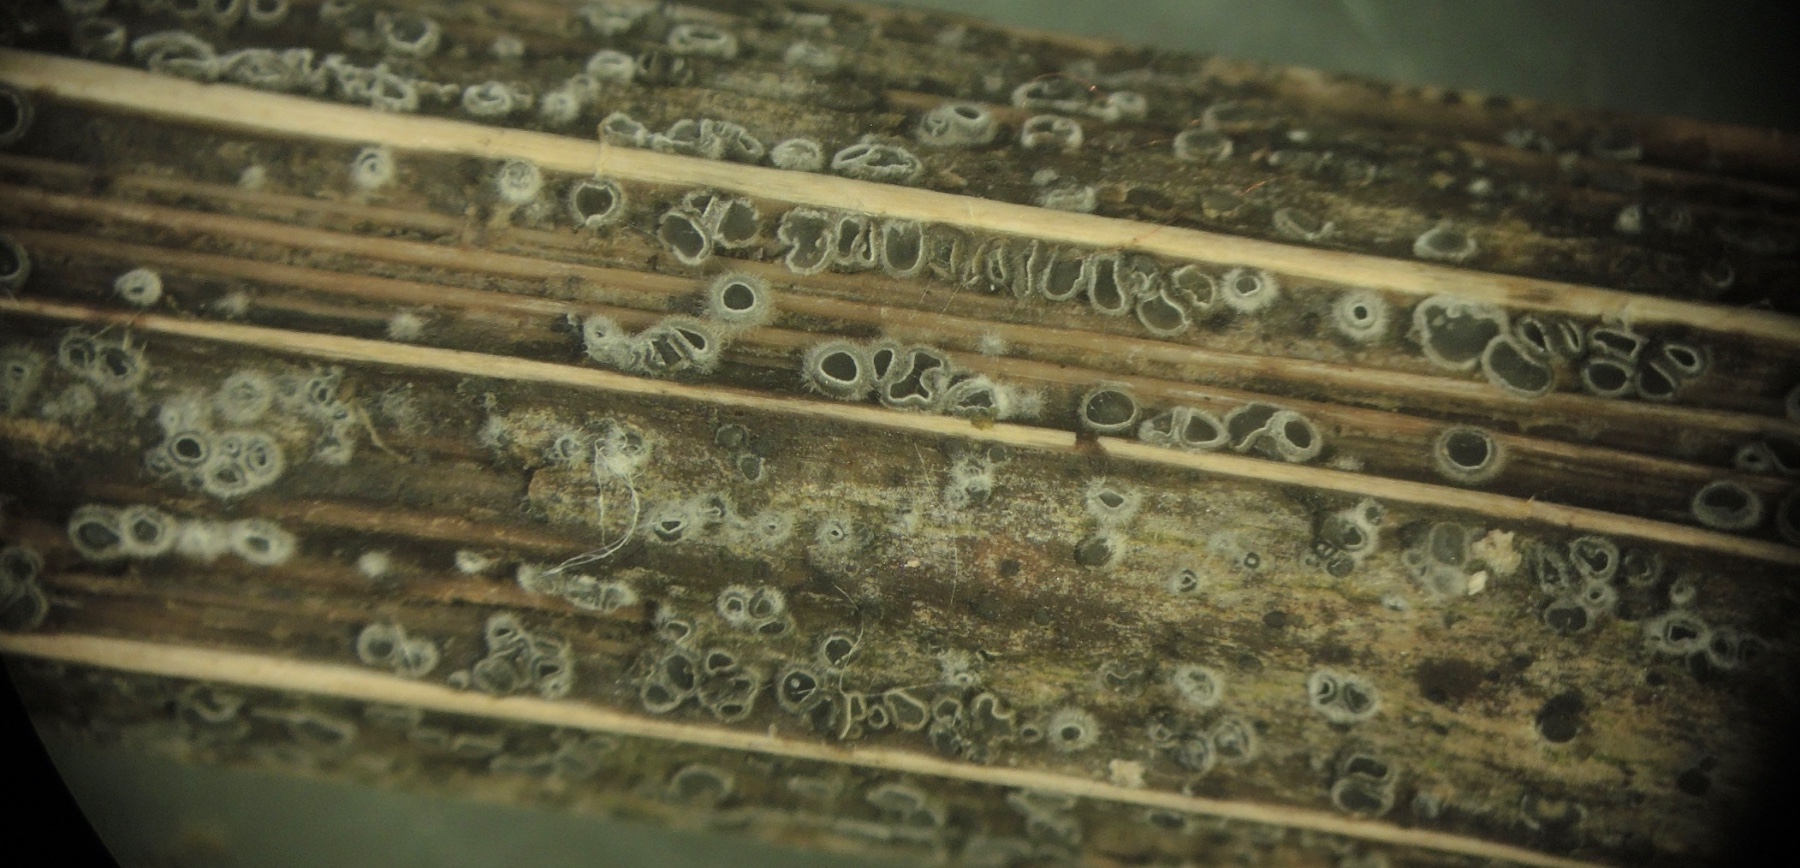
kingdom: Fungi
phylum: Ascomycota
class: Leotiomycetes
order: Helotiales
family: Ploettnerulaceae
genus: Pyrenopeziza
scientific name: Pyrenopeziza carduorum
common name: tidsel-kerneskive
